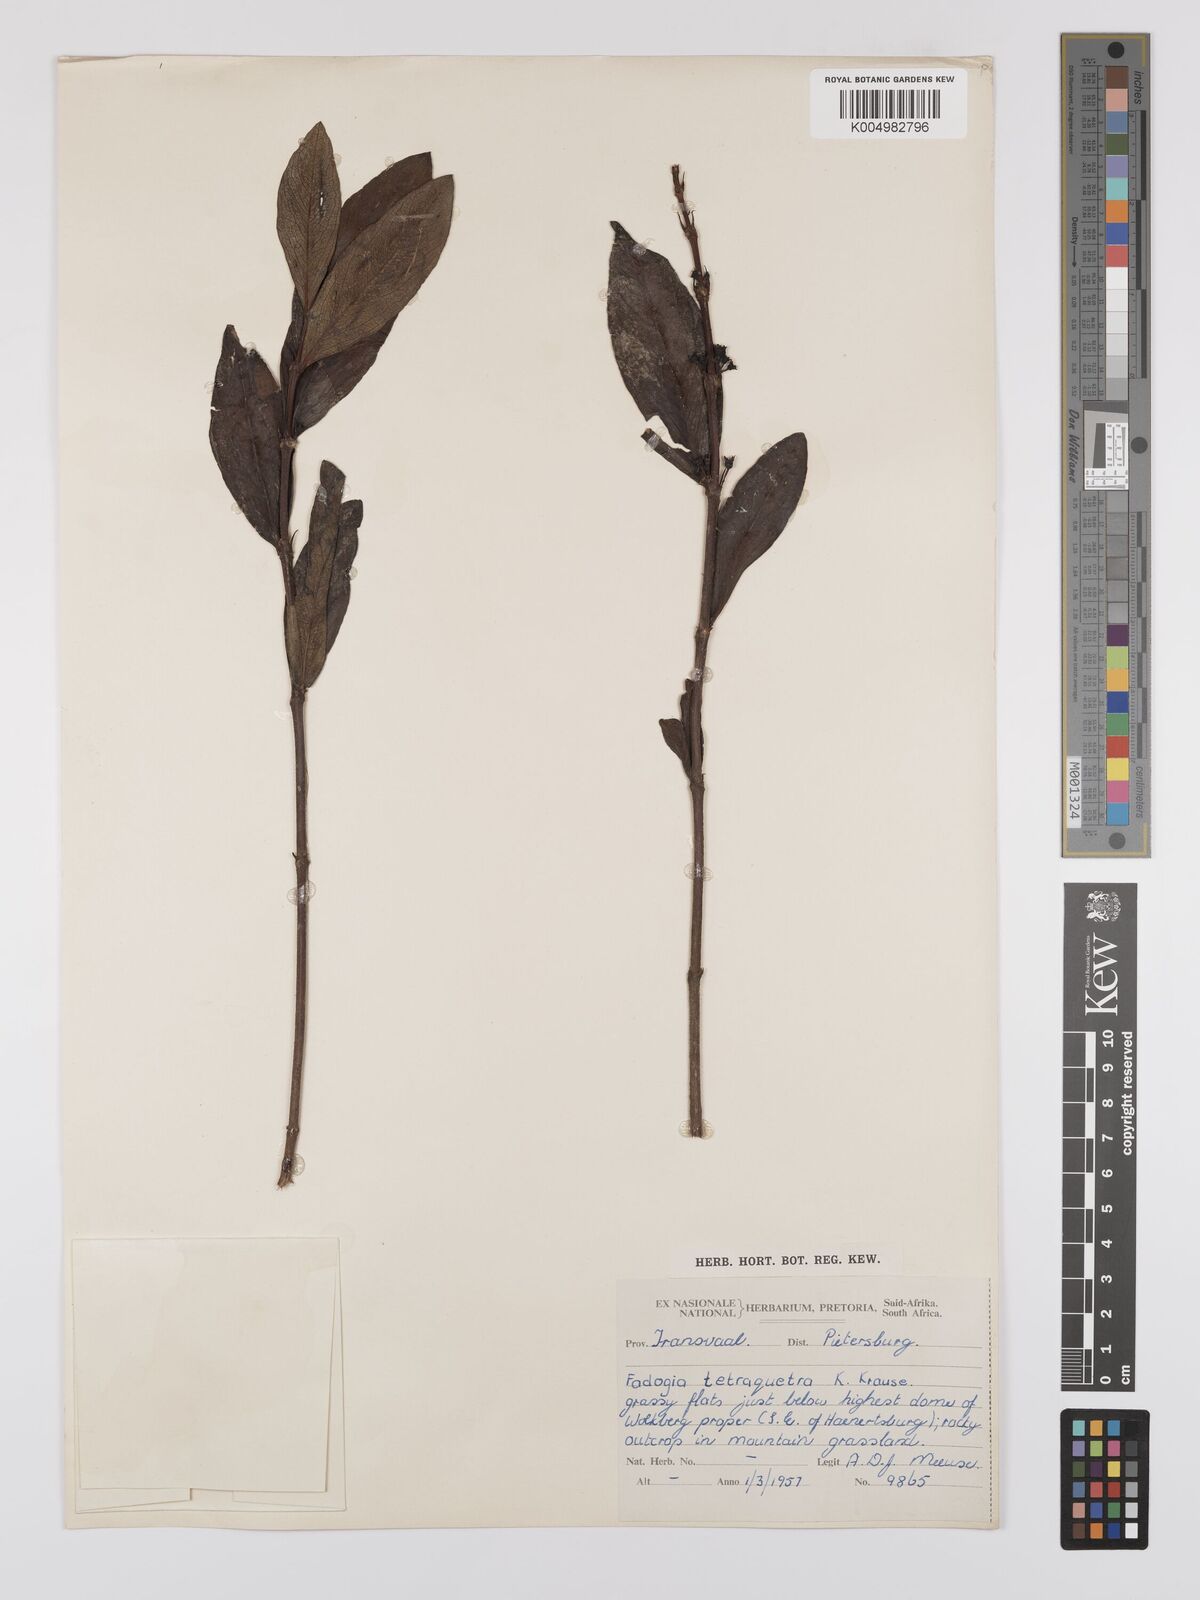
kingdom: Plantae
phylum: Tracheophyta
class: Magnoliopsida
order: Gentianales
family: Rubiaceae
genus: Fadogia
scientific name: Fadogia tetraquetra
